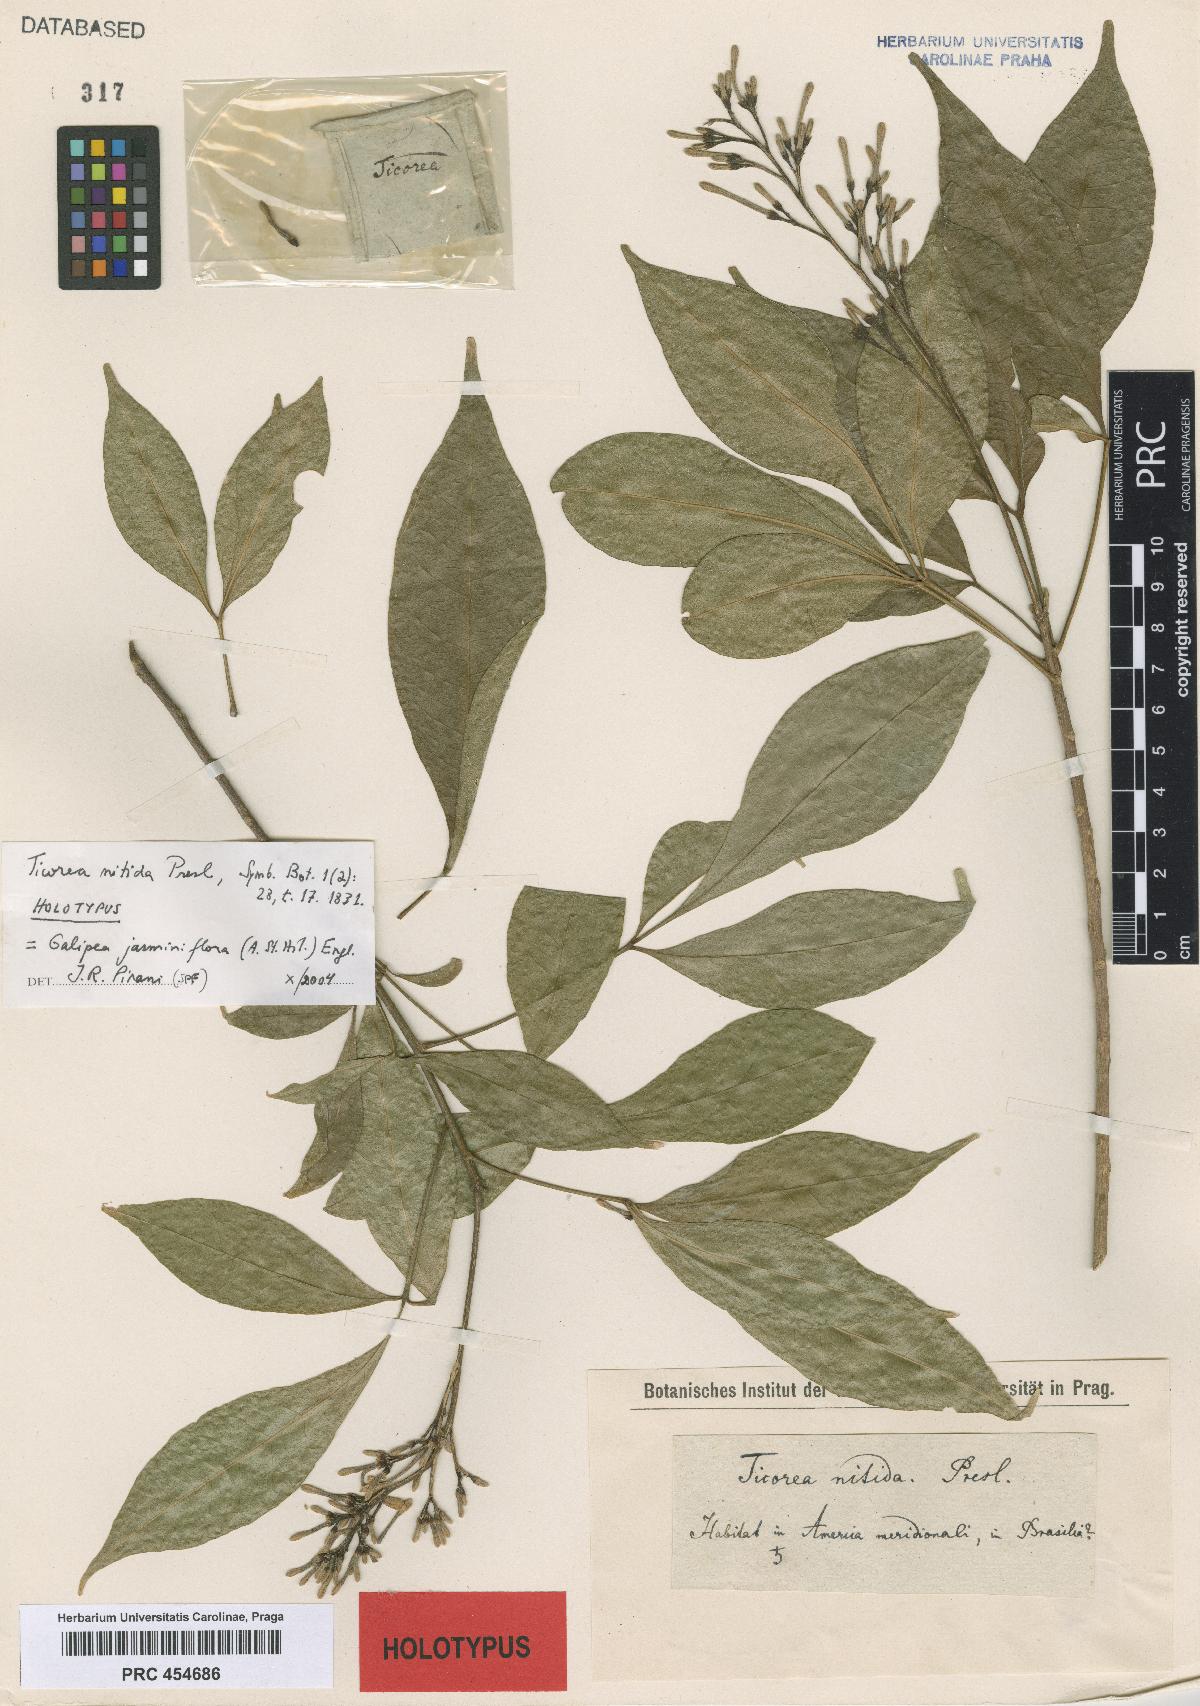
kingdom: Plantae
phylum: Tracheophyta
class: Magnoliopsida
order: Sapindales
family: Rutaceae
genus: Ticorea
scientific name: Ticorea nitida
